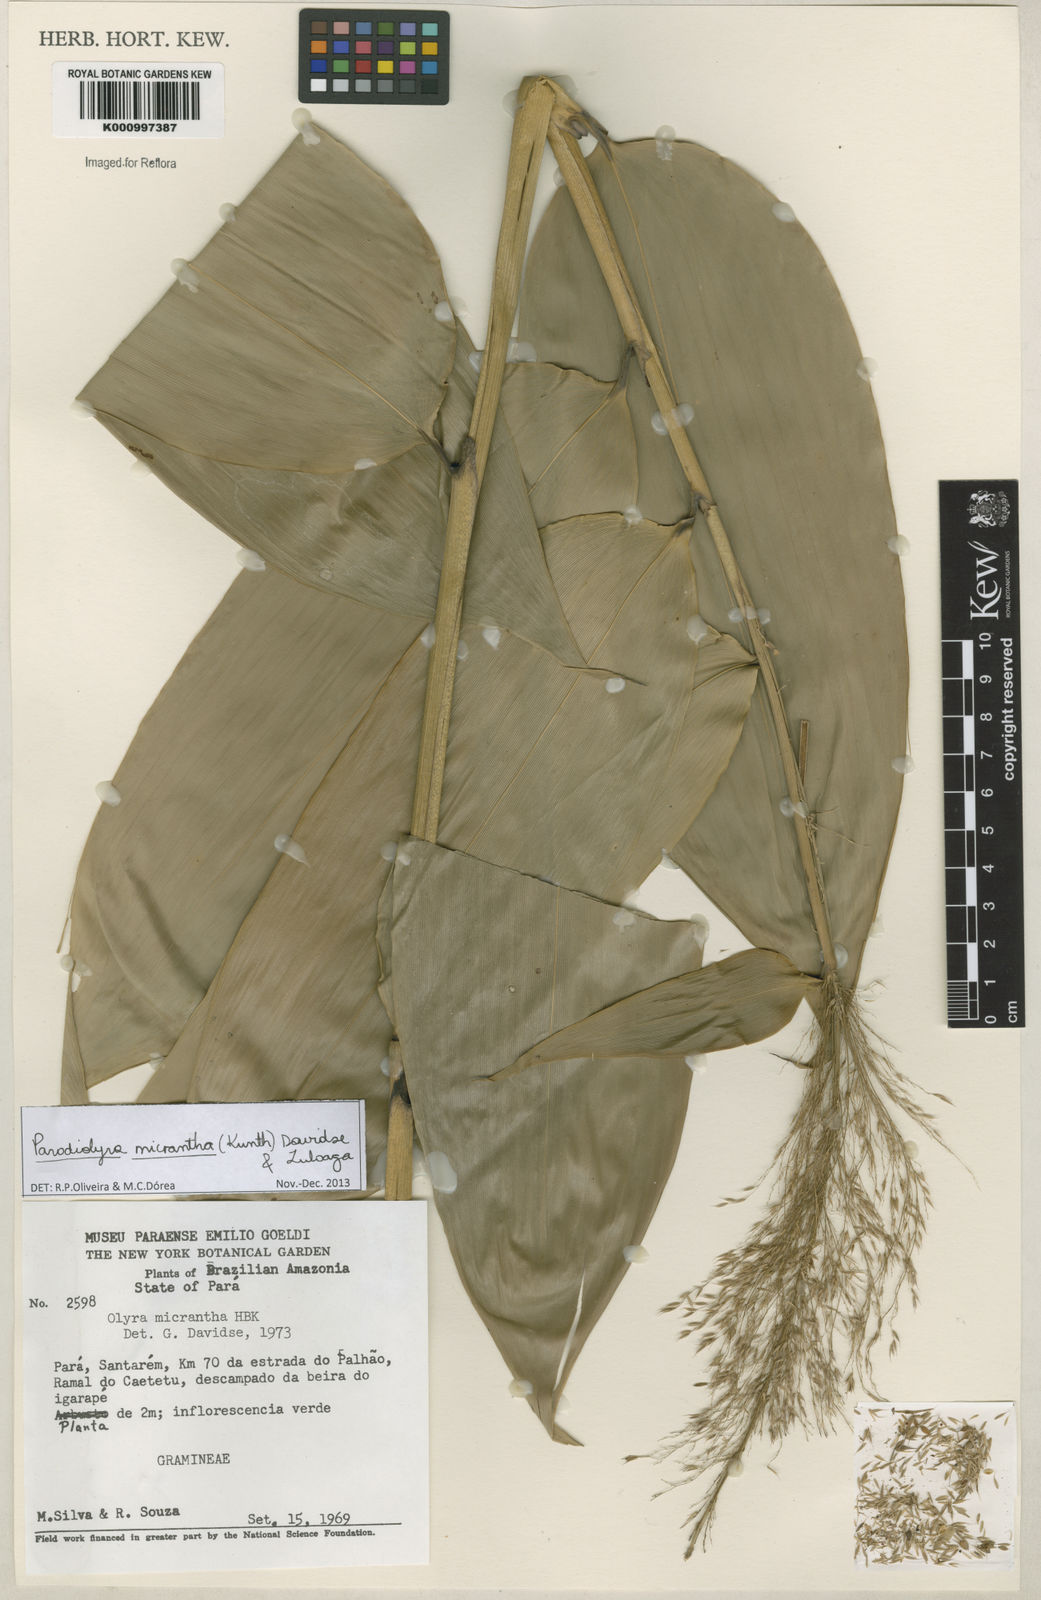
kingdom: Plantae
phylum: Tracheophyta
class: Liliopsida
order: Poales
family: Poaceae
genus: Taquara
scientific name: Taquara micrantha
